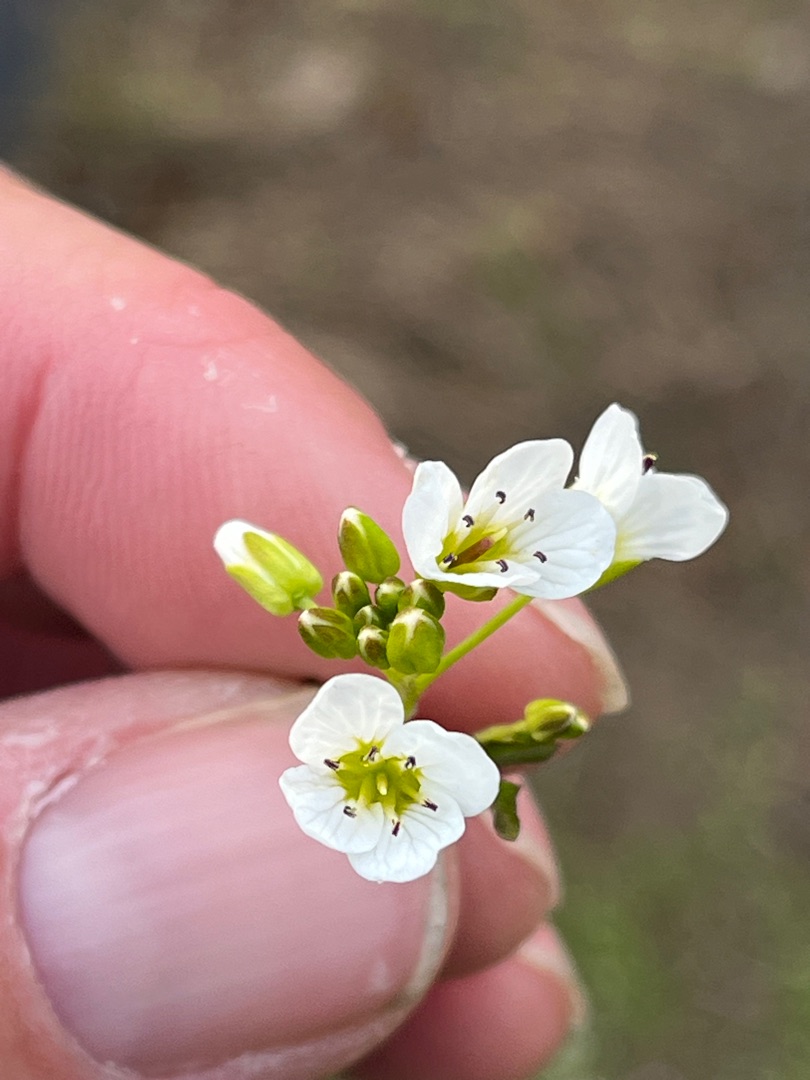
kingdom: Plantae
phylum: Tracheophyta
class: Magnoliopsida
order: Brassicales
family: Brassicaceae
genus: Cardamine
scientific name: Cardamine amara
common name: Vandkarse
